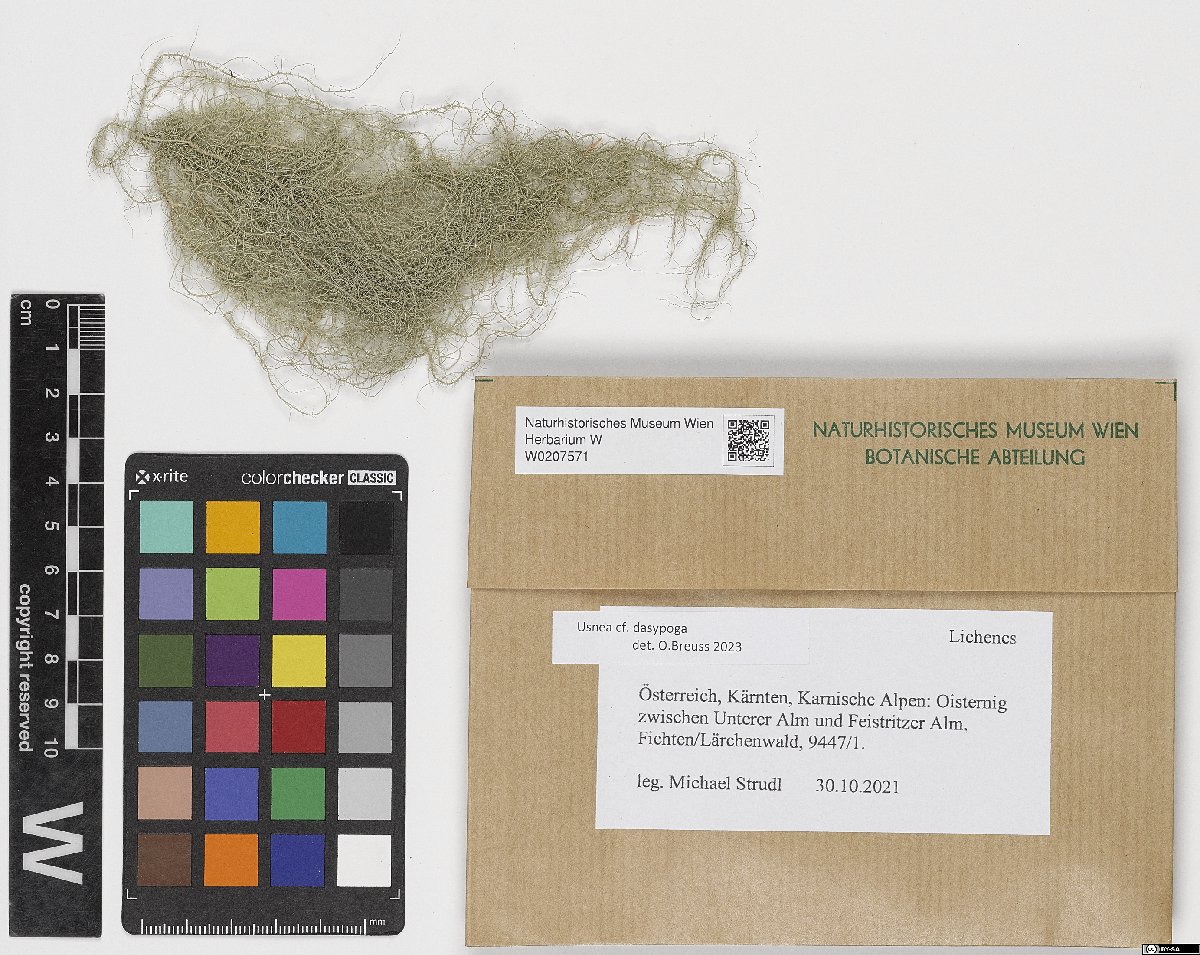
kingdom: Fungi
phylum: Ascomycota
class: Lecanoromycetes
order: Lecanorales
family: Parmeliaceae
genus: Usnea
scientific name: Usnea dasypoga
